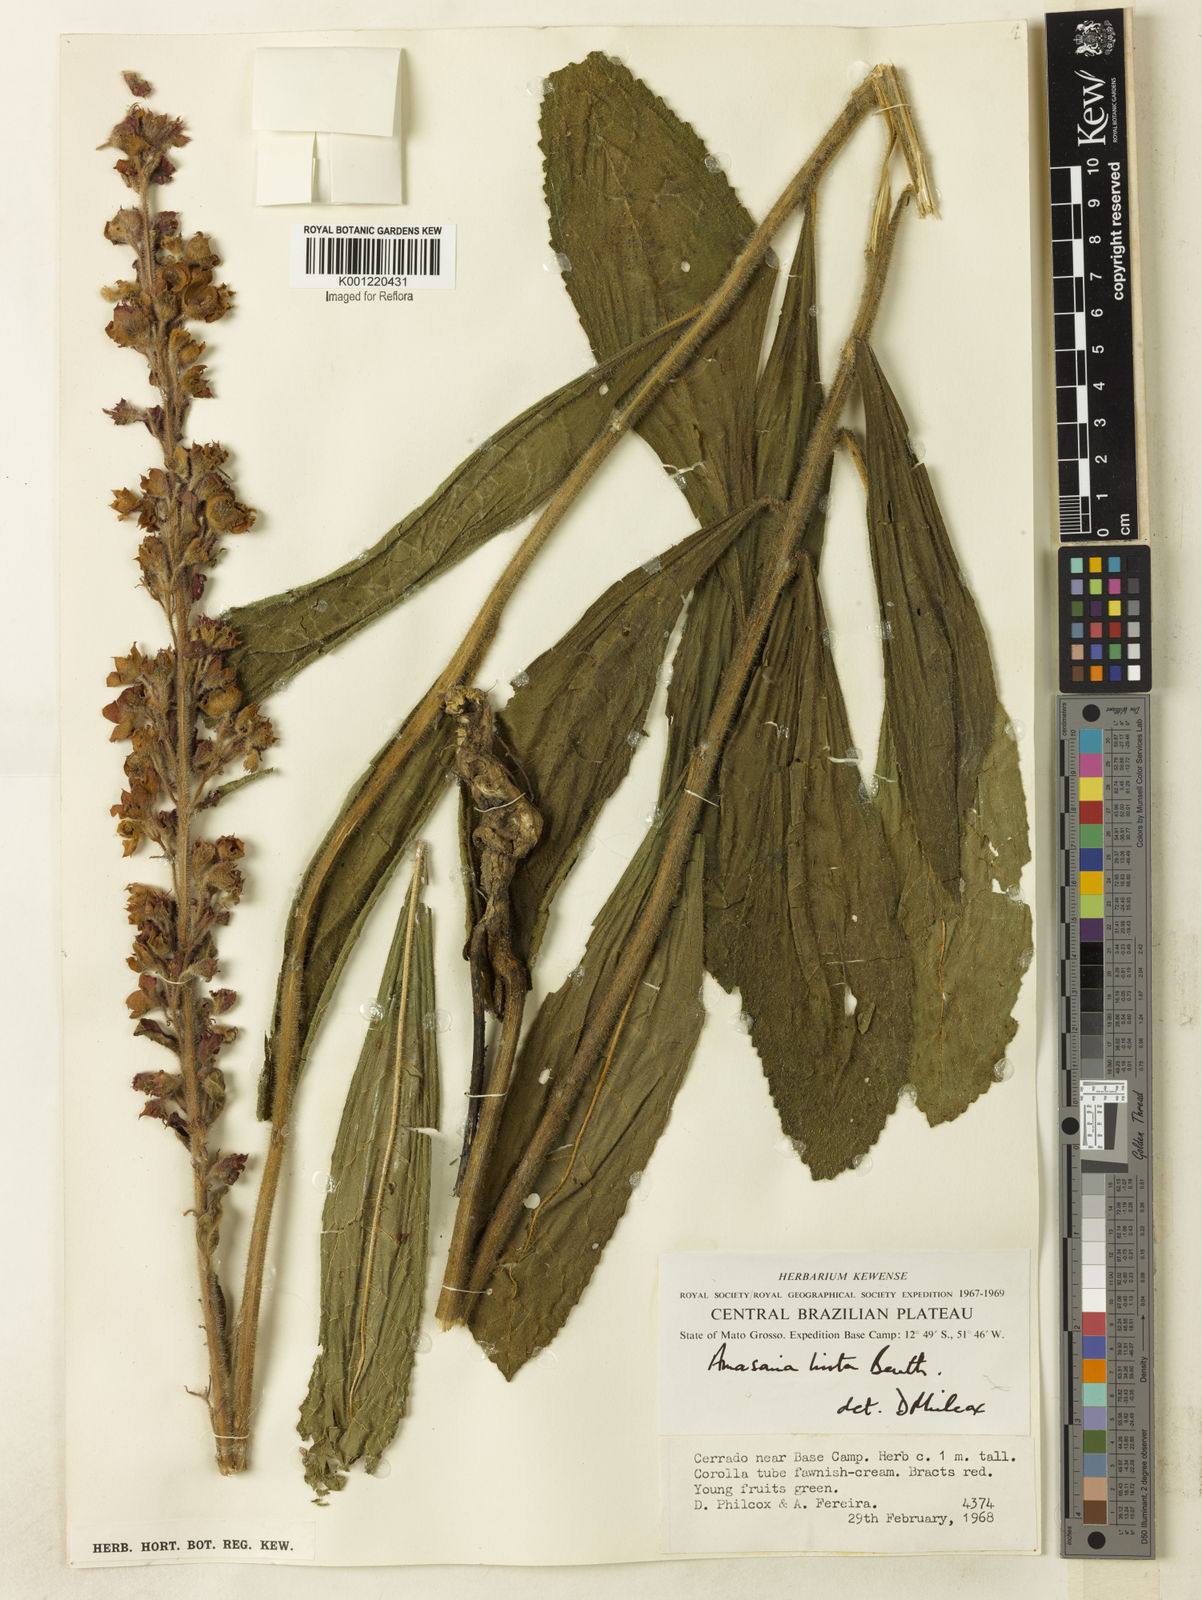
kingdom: Plantae
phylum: Tracheophyta
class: Magnoliopsida
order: Lamiales
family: Lamiaceae
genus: Amasonia
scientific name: Amasonia hirta
